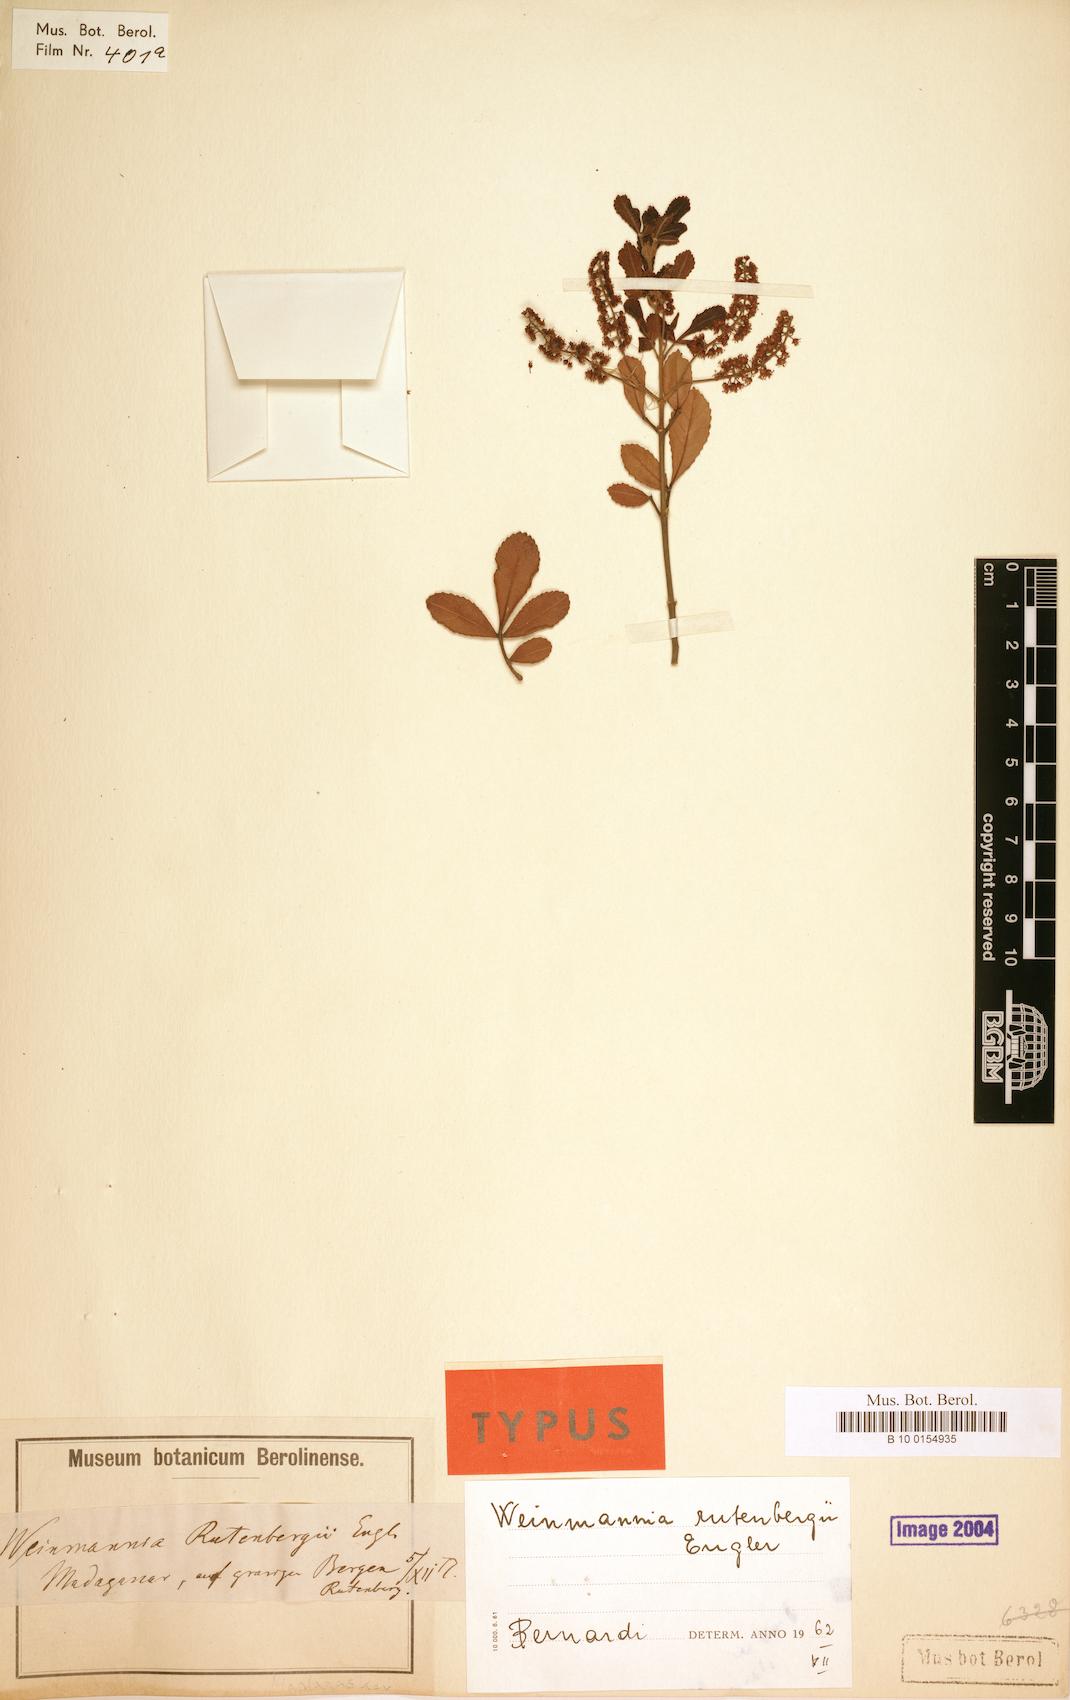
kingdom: Plantae
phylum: Tracheophyta
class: Magnoliopsida
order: Oxalidales
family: Cunoniaceae
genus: Pterophylla
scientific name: Pterophylla rutenbergii
